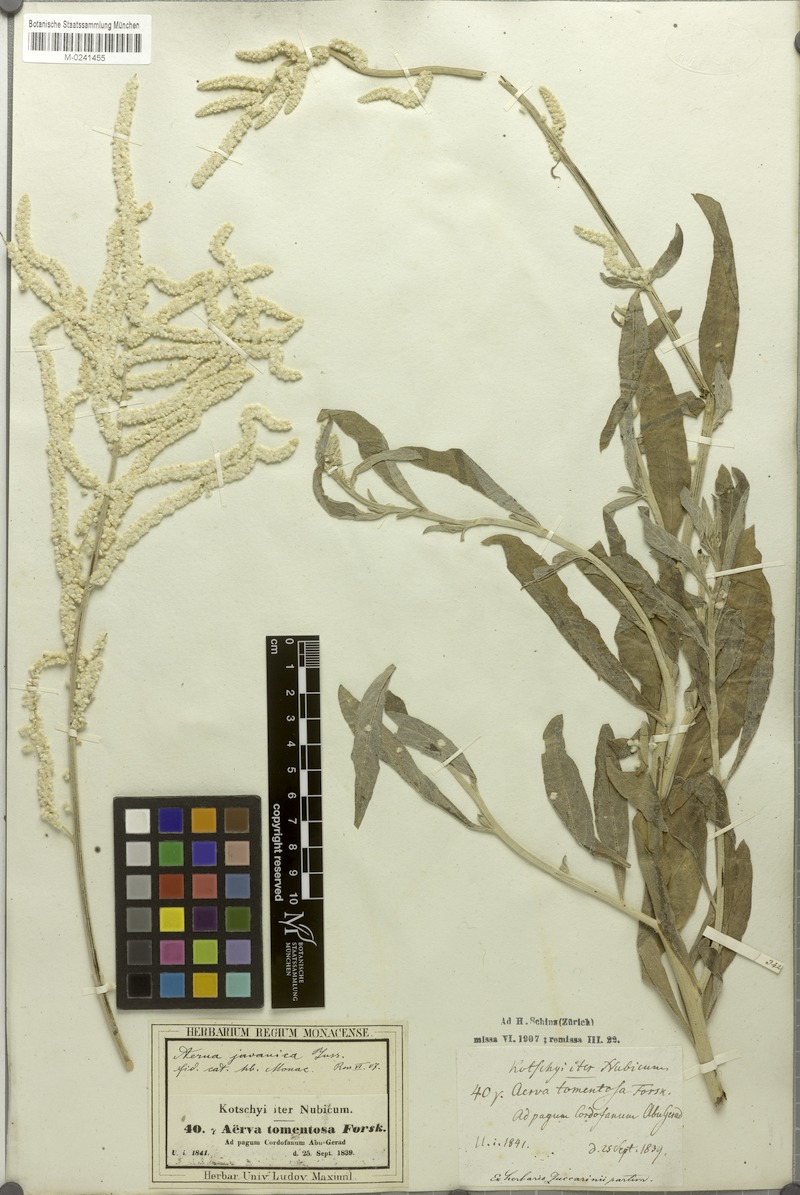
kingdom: Plantae
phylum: Tracheophyta
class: Magnoliopsida
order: Caryophyllales
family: Amaranthaceae
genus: Aerva
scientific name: Aerva javanica
